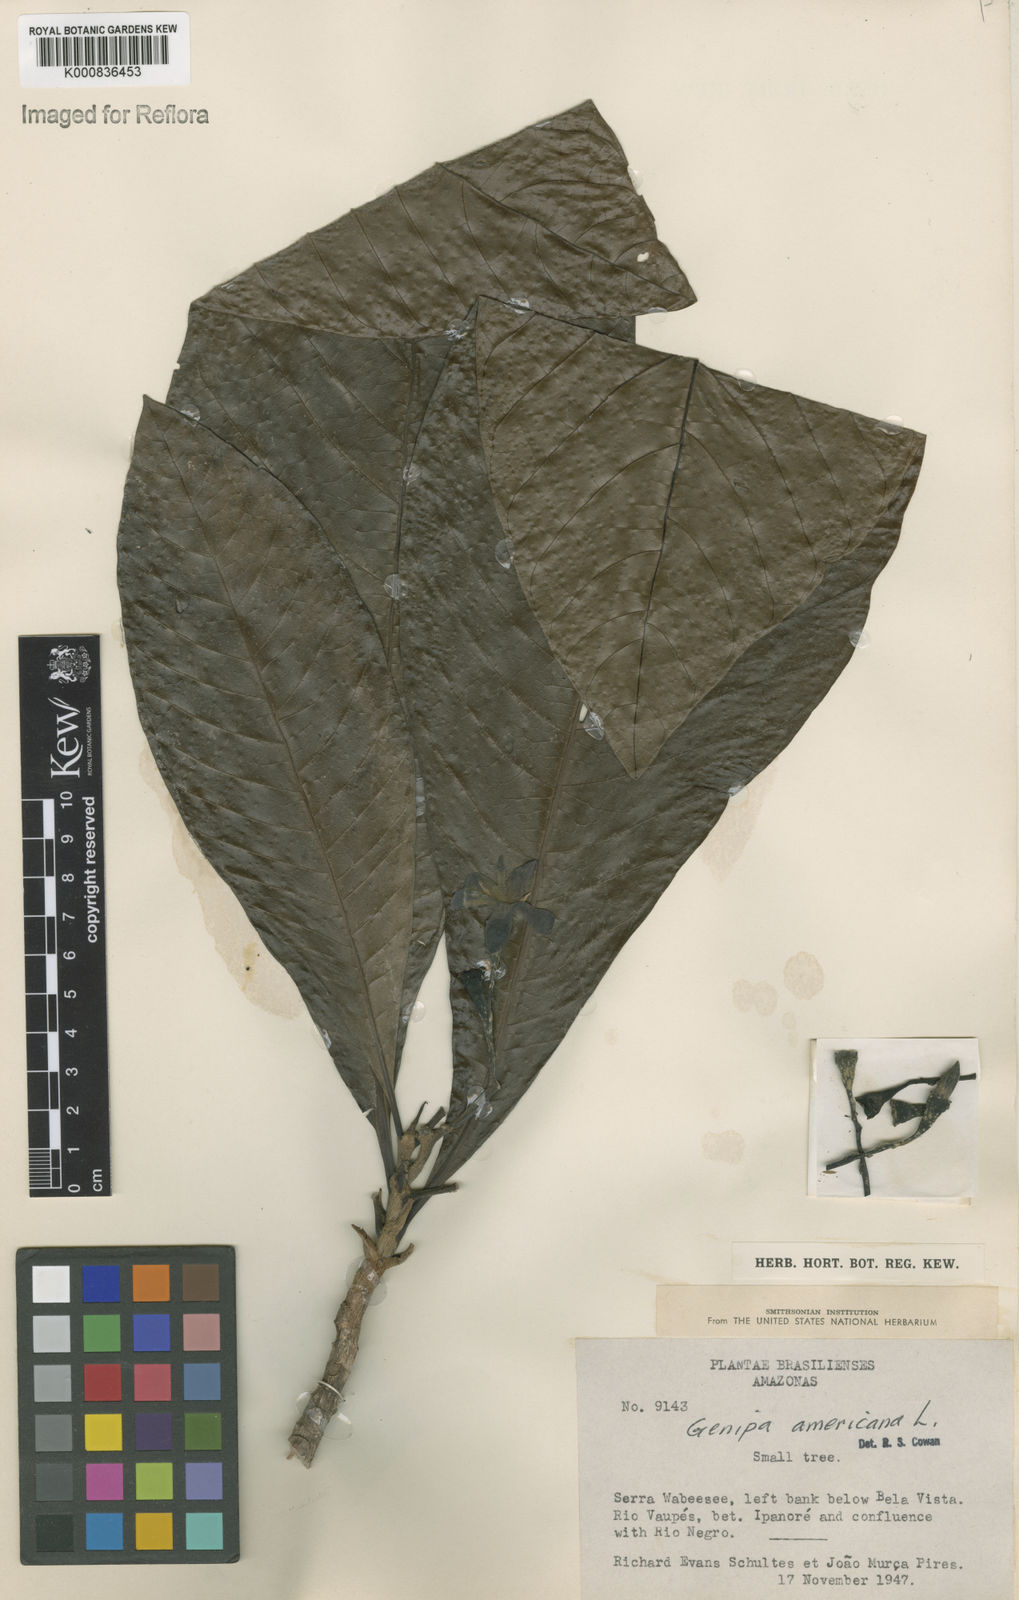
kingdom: Plantae
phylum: Tracheophyta
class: Magnoliopsida
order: Gentianales
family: Rubiaceae
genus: Genipa
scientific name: Genipa americana
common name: Genipap
